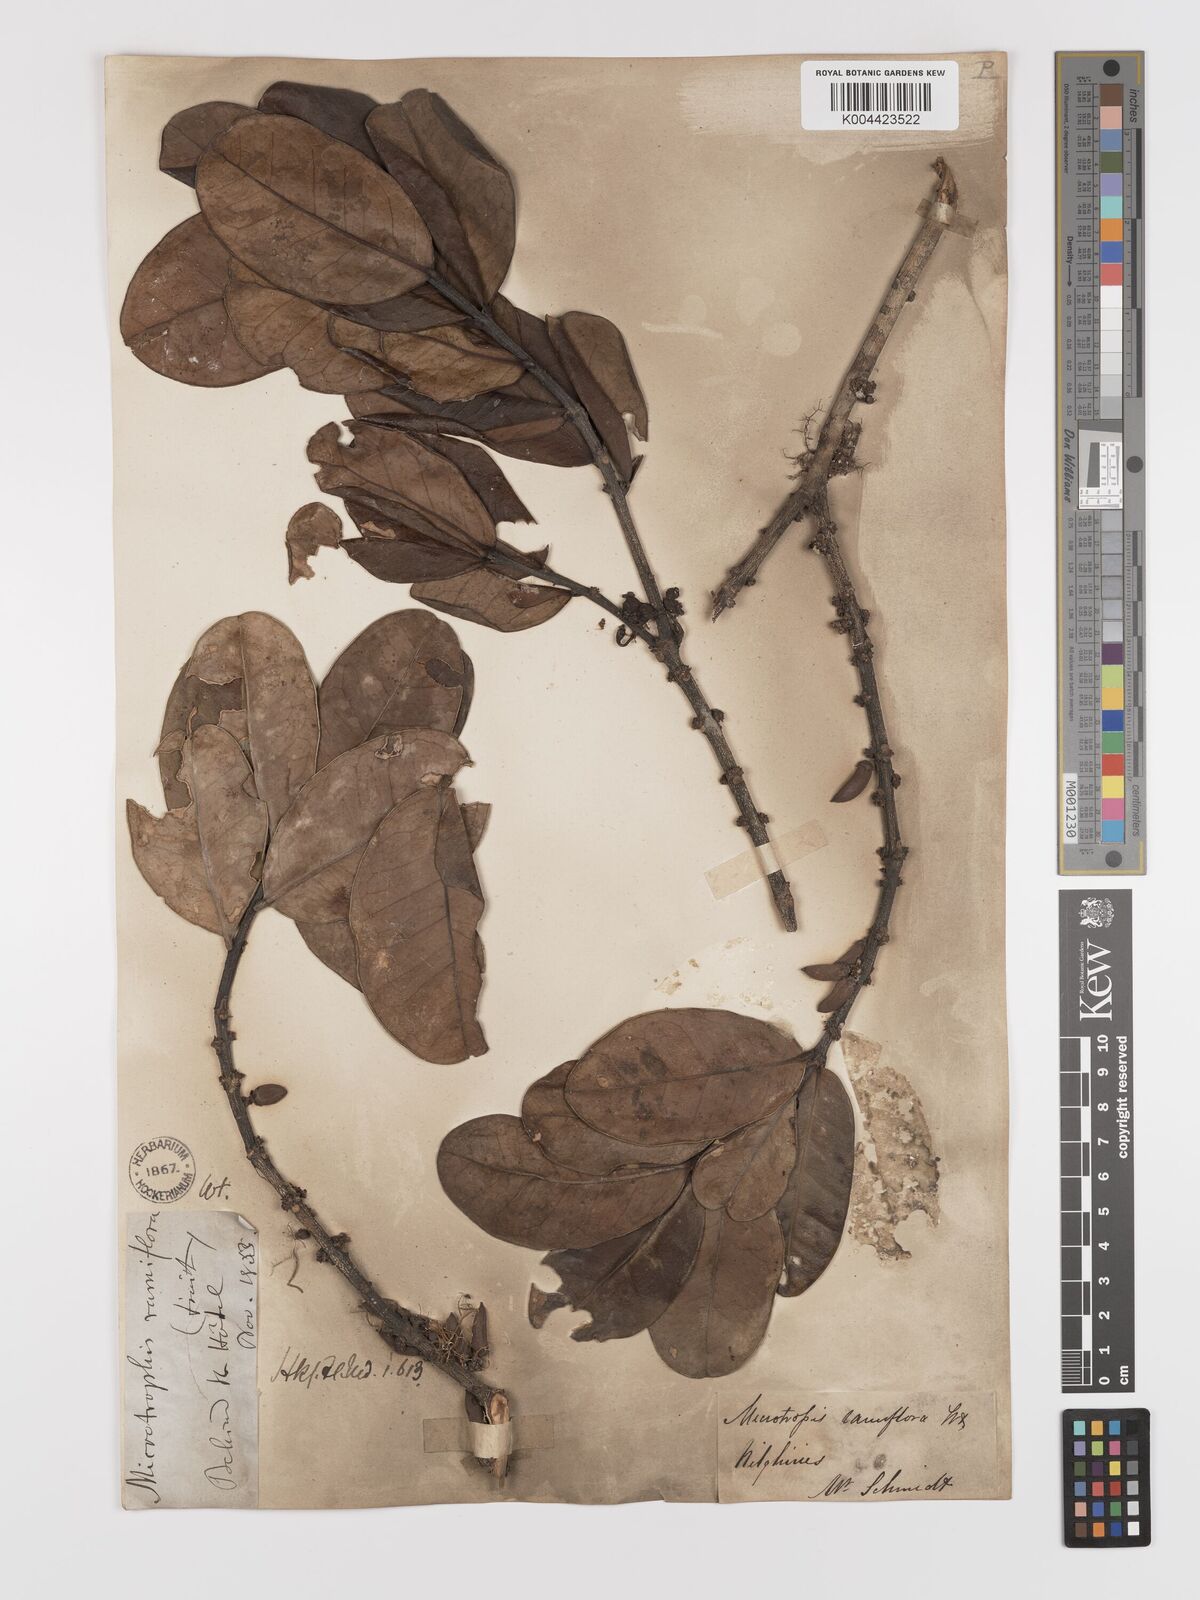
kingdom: Plantae
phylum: Tracheophyta
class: Magnoliopsida
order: Celastrales
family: Celastraceae
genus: Microtropis
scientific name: Microtropis ramiflora
